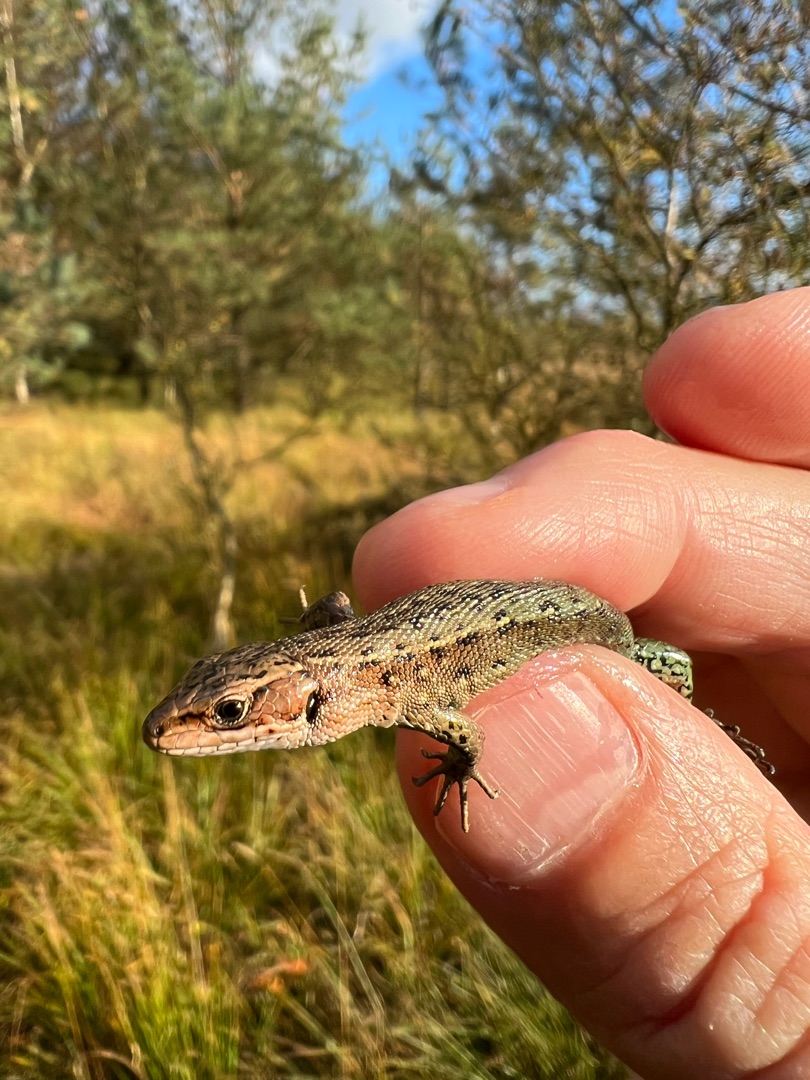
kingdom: Animalia
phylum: Chordata
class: Squamata
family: Lacertidae
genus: Zootoca
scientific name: Zootoca vivipara
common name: Skovfirben
